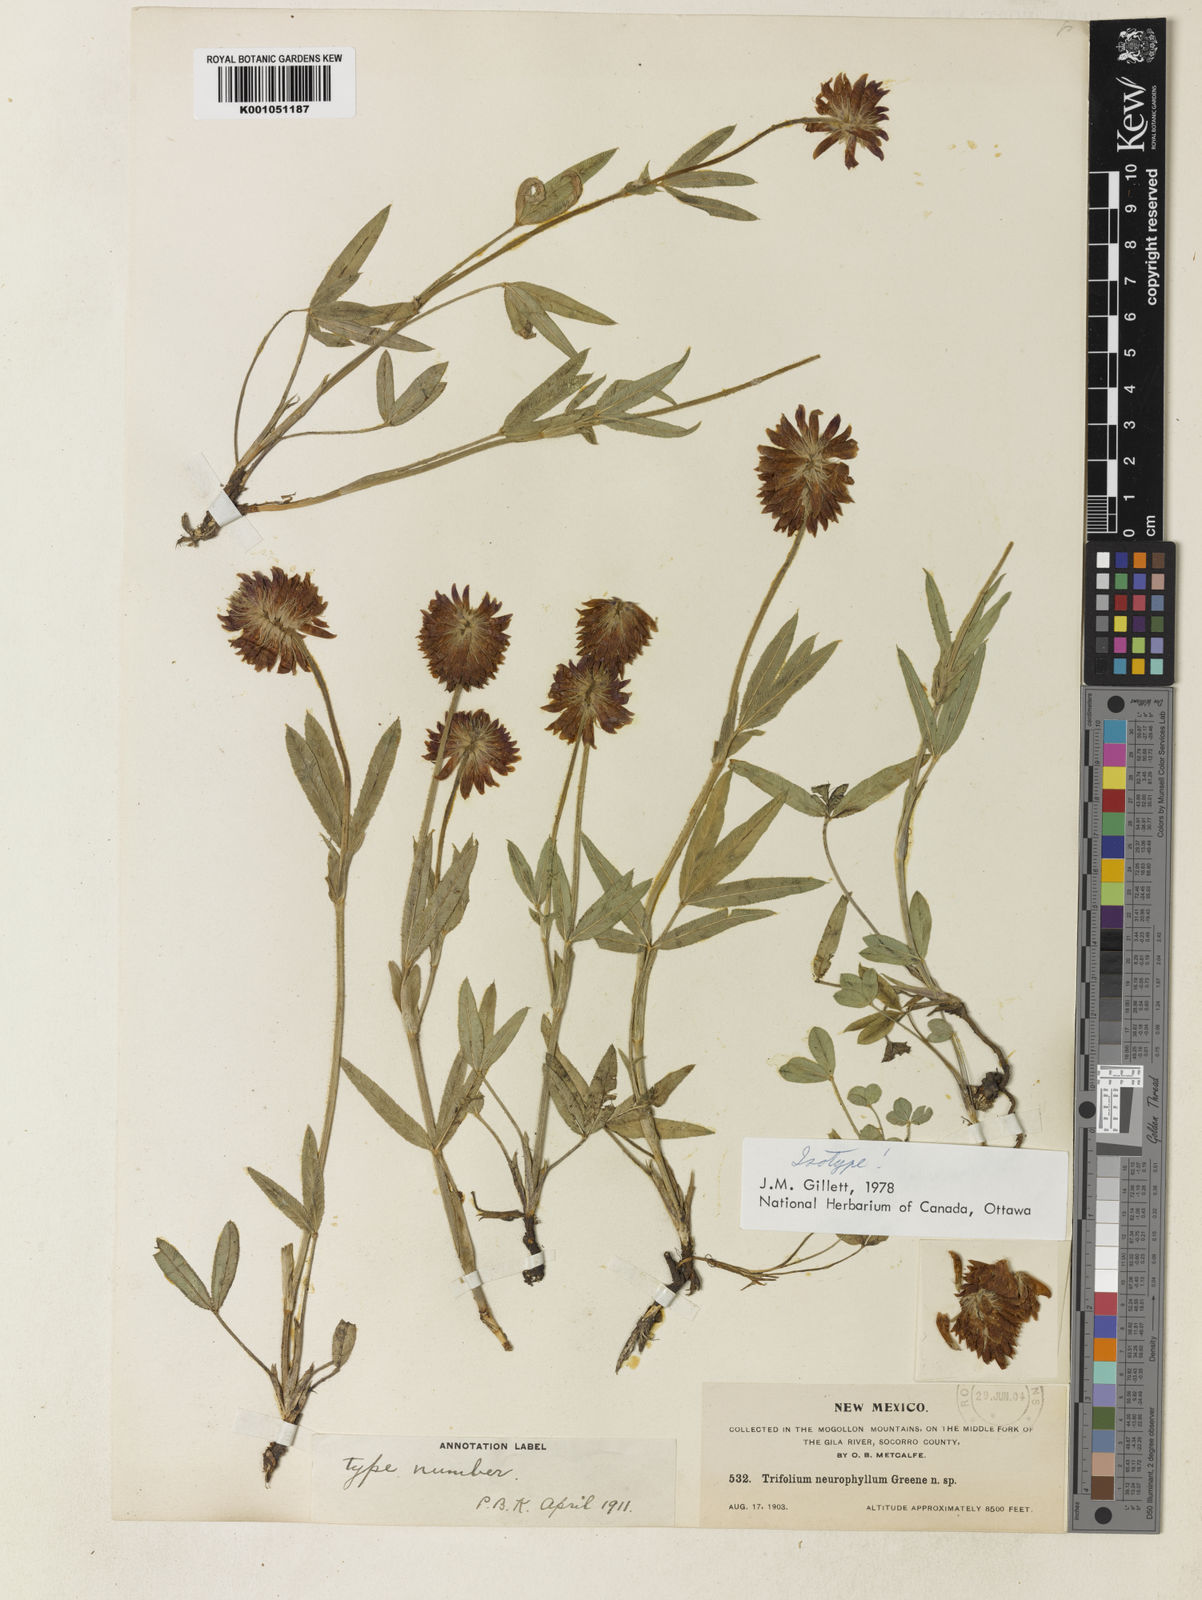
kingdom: Plantae
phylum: Tracheophyta
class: Magnoliopsida
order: Fabales
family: Fabaceae
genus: Trifolium
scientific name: Trifolium longipes
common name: Long-stalk clover
